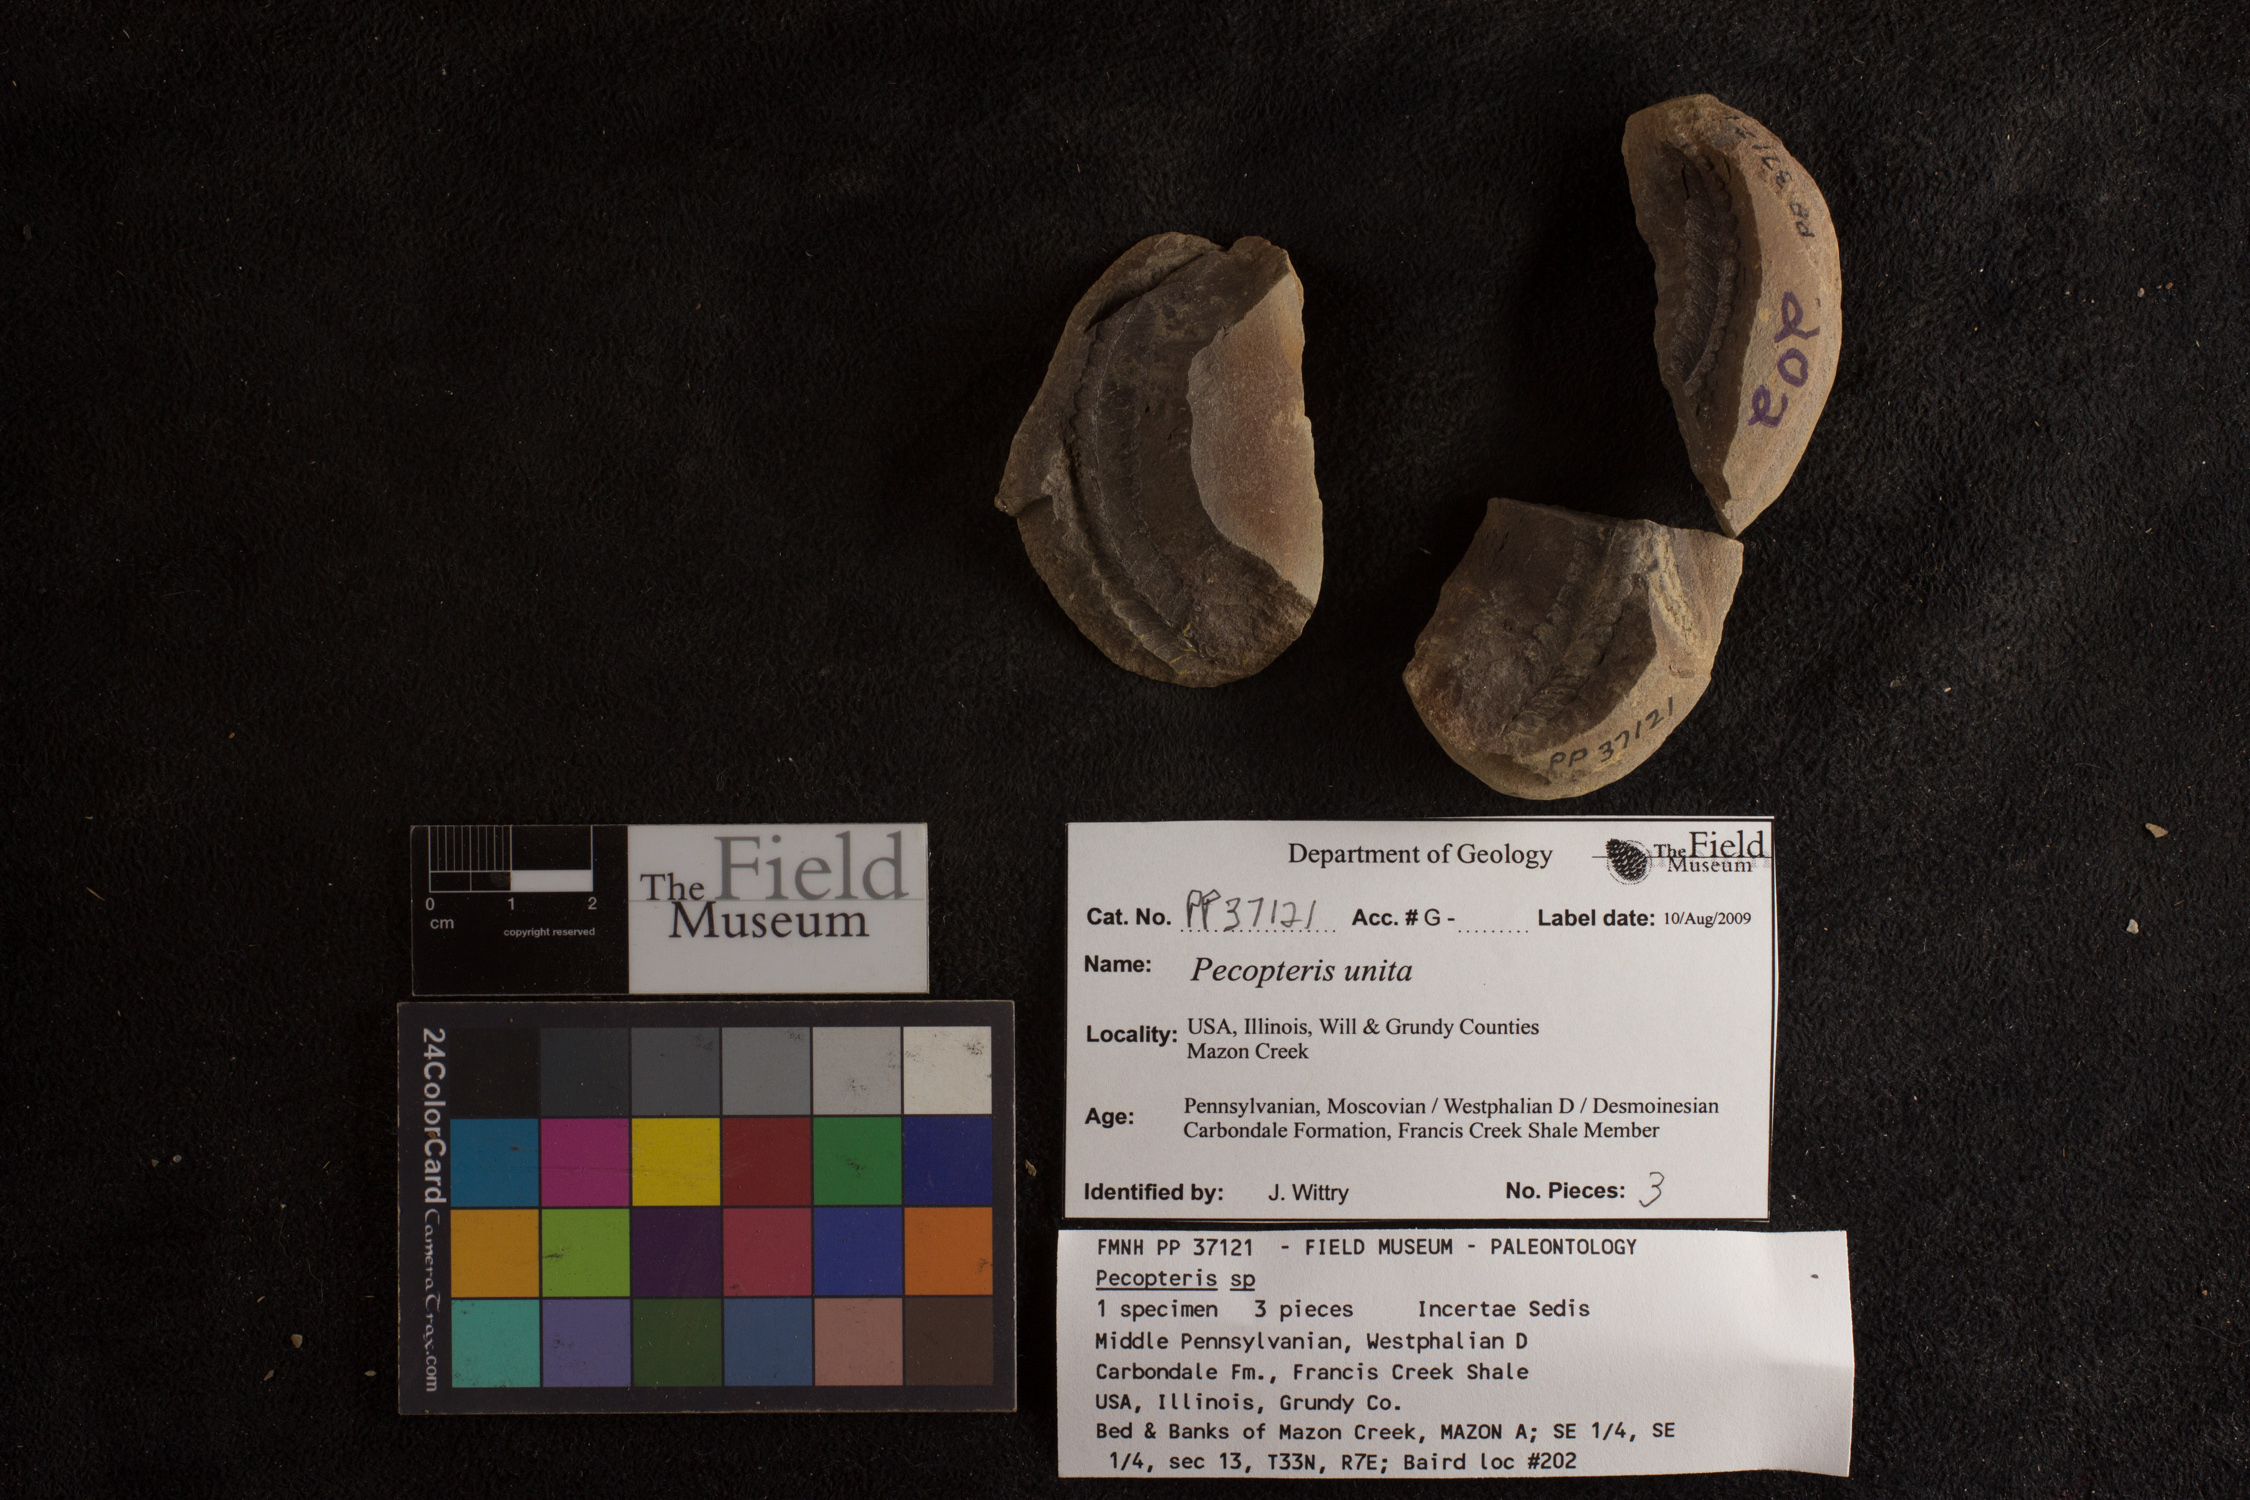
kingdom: Plantae
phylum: Tracheophyta
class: Polypodiopsida
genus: Diplazites
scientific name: Diplazites
